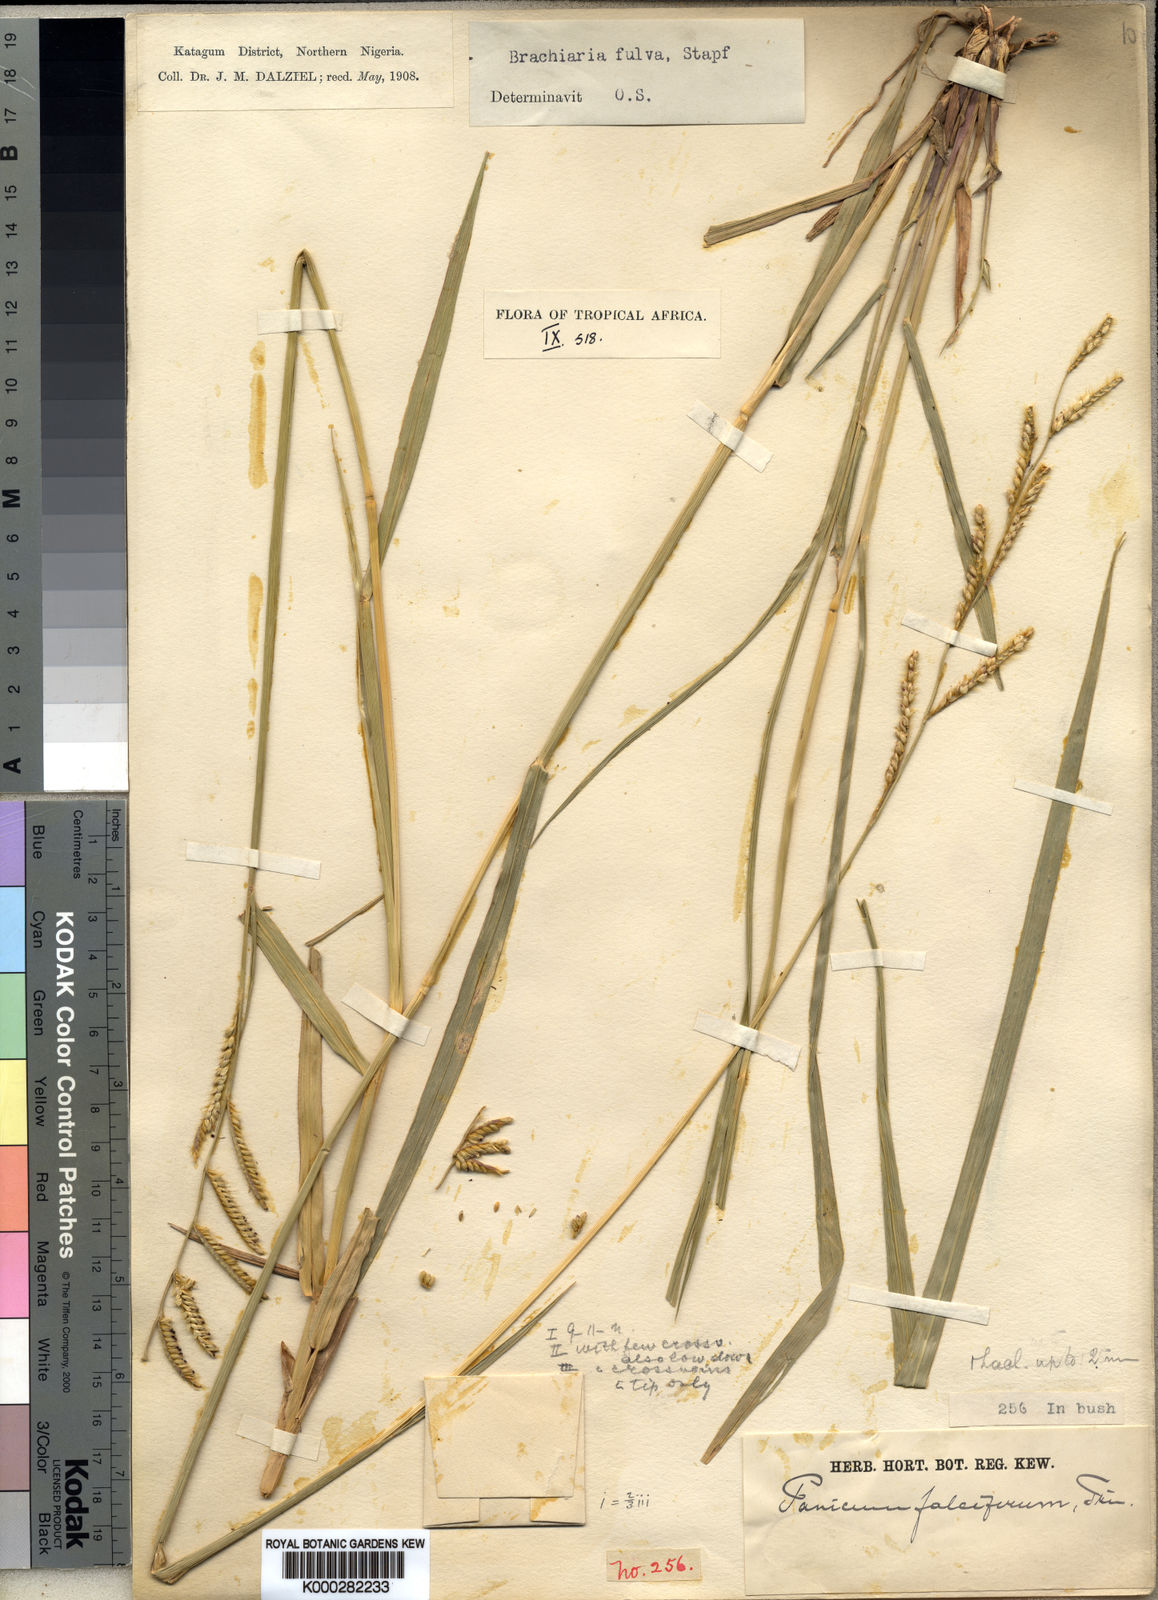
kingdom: Plantae
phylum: Tracheophyta
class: Liliopsida
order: Poales
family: Poaceae
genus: Urochloa
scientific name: Urochloa jubata
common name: Buffalograss
